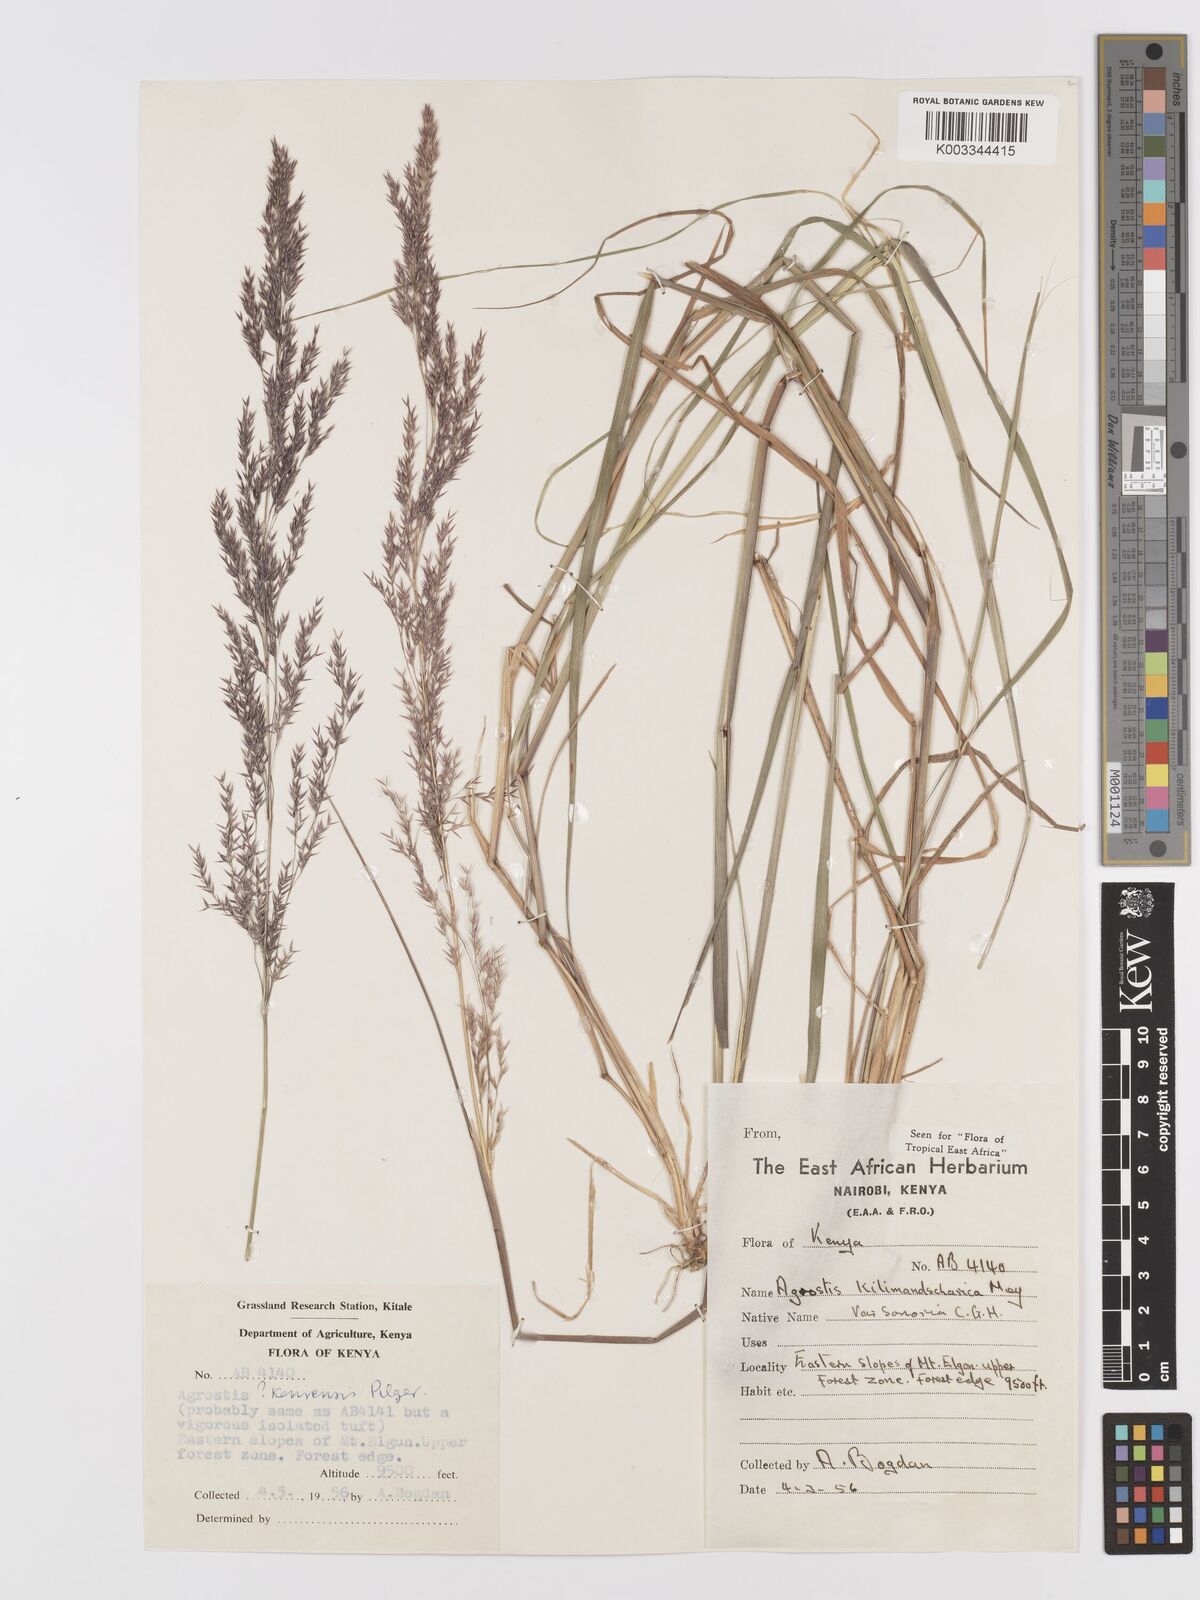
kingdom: Plantae
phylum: Tracheophyta
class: Liliopsida
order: Poales
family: Poaceae
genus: Agrostis
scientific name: Agrostis kilimandscharica
